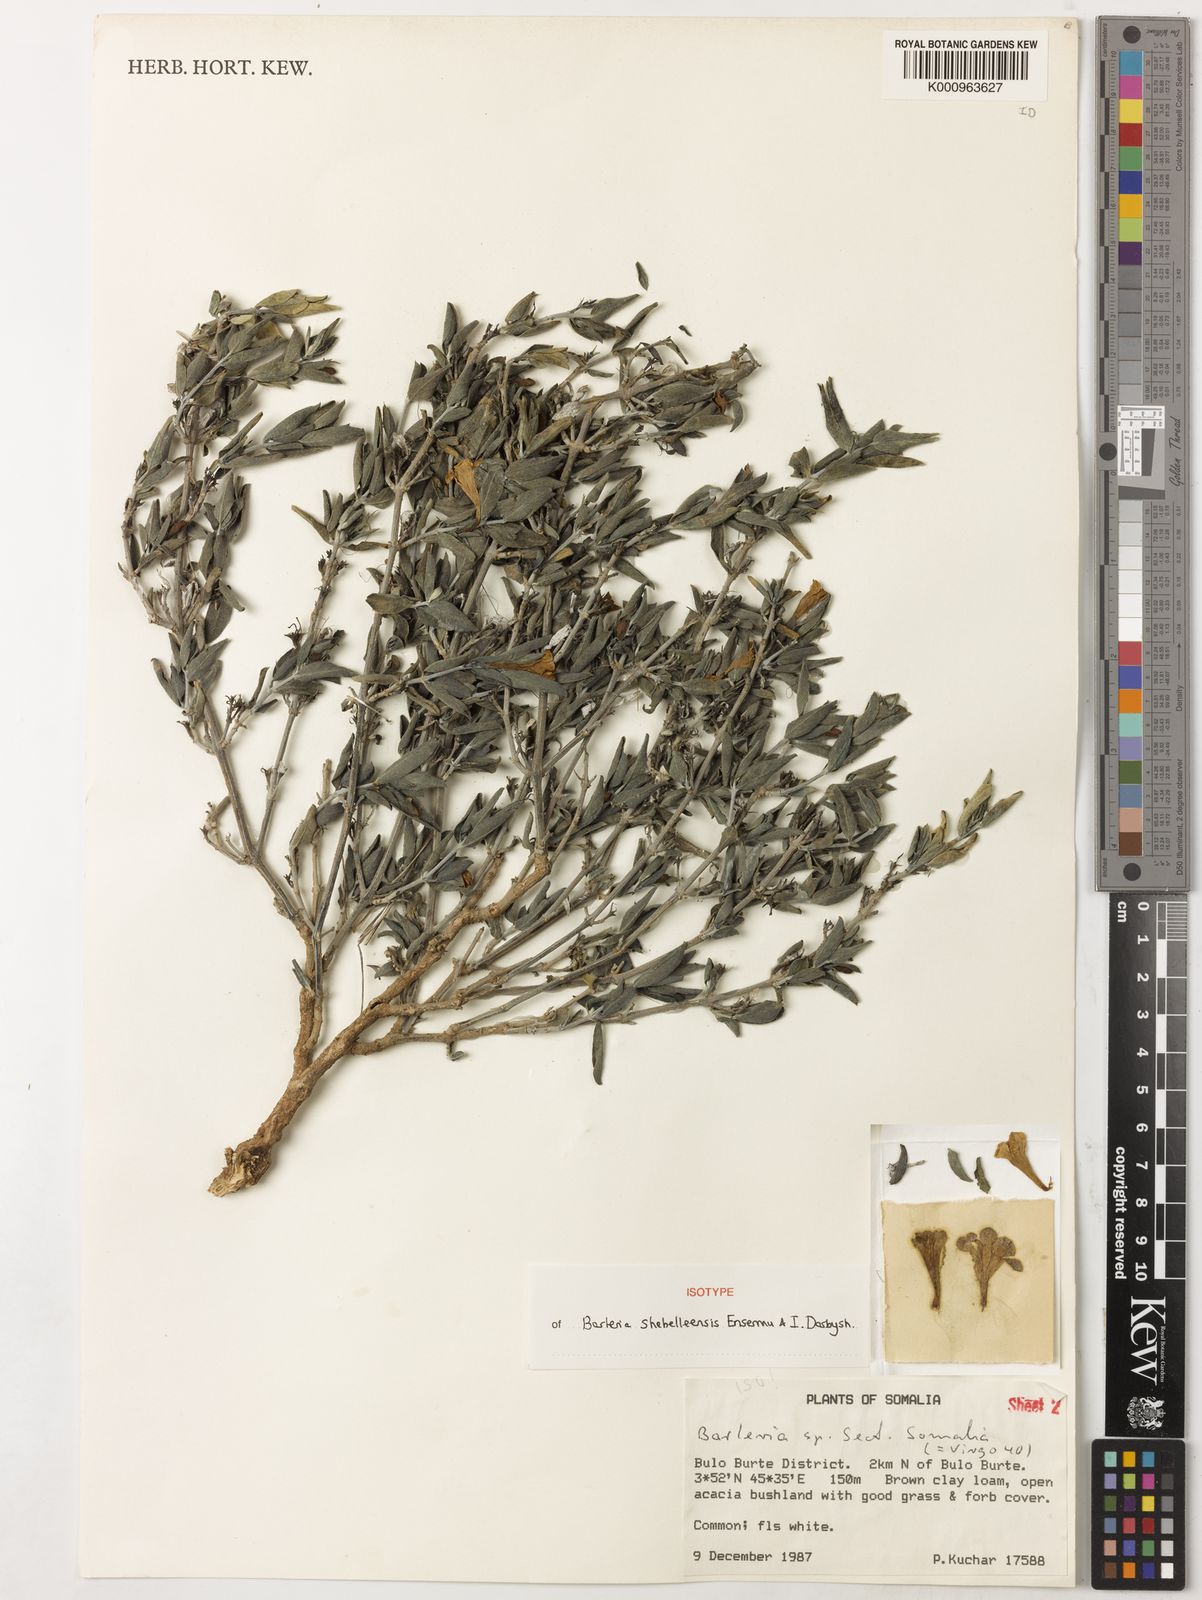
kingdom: Plantae
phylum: Tracheophyta
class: Magnoliopsida
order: Lamiales
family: Acanthaceae
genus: Barleria
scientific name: Barleria shebelleensis
